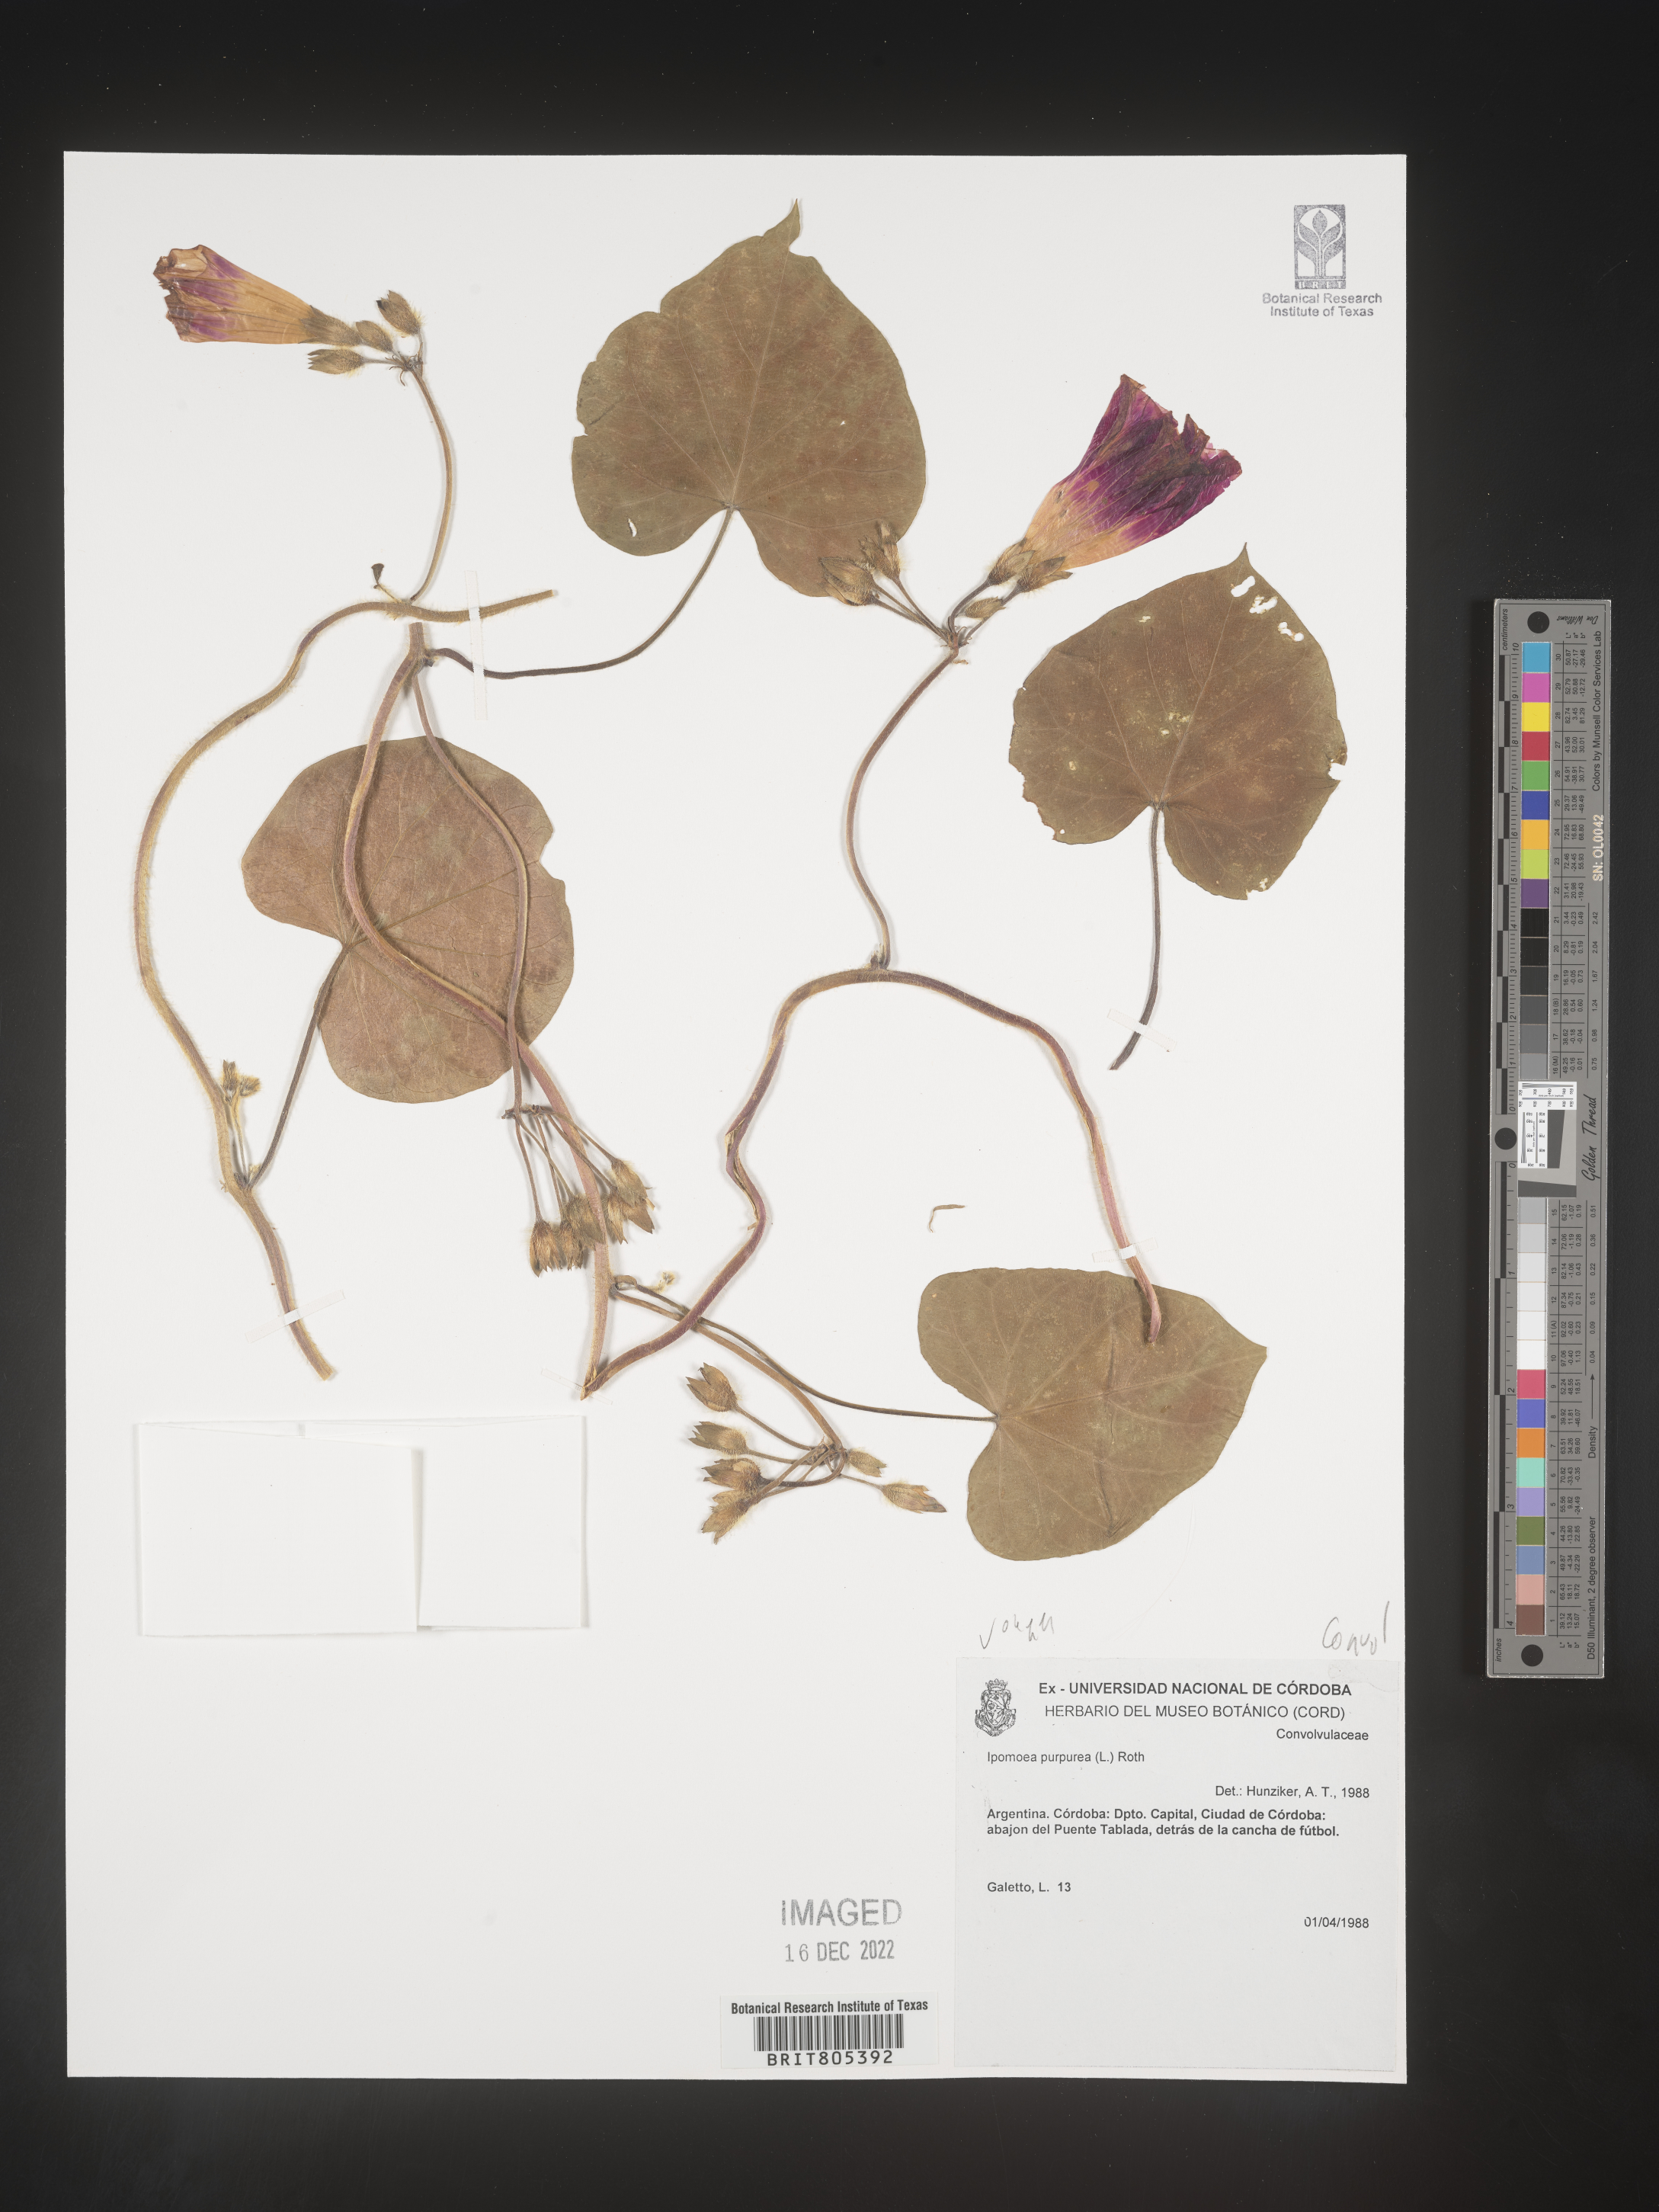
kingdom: Plantae
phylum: Tracheophyta
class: Magnoliopsida
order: Solanales
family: Convolvulaceae
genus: Ipomoea
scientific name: Ipomoea
